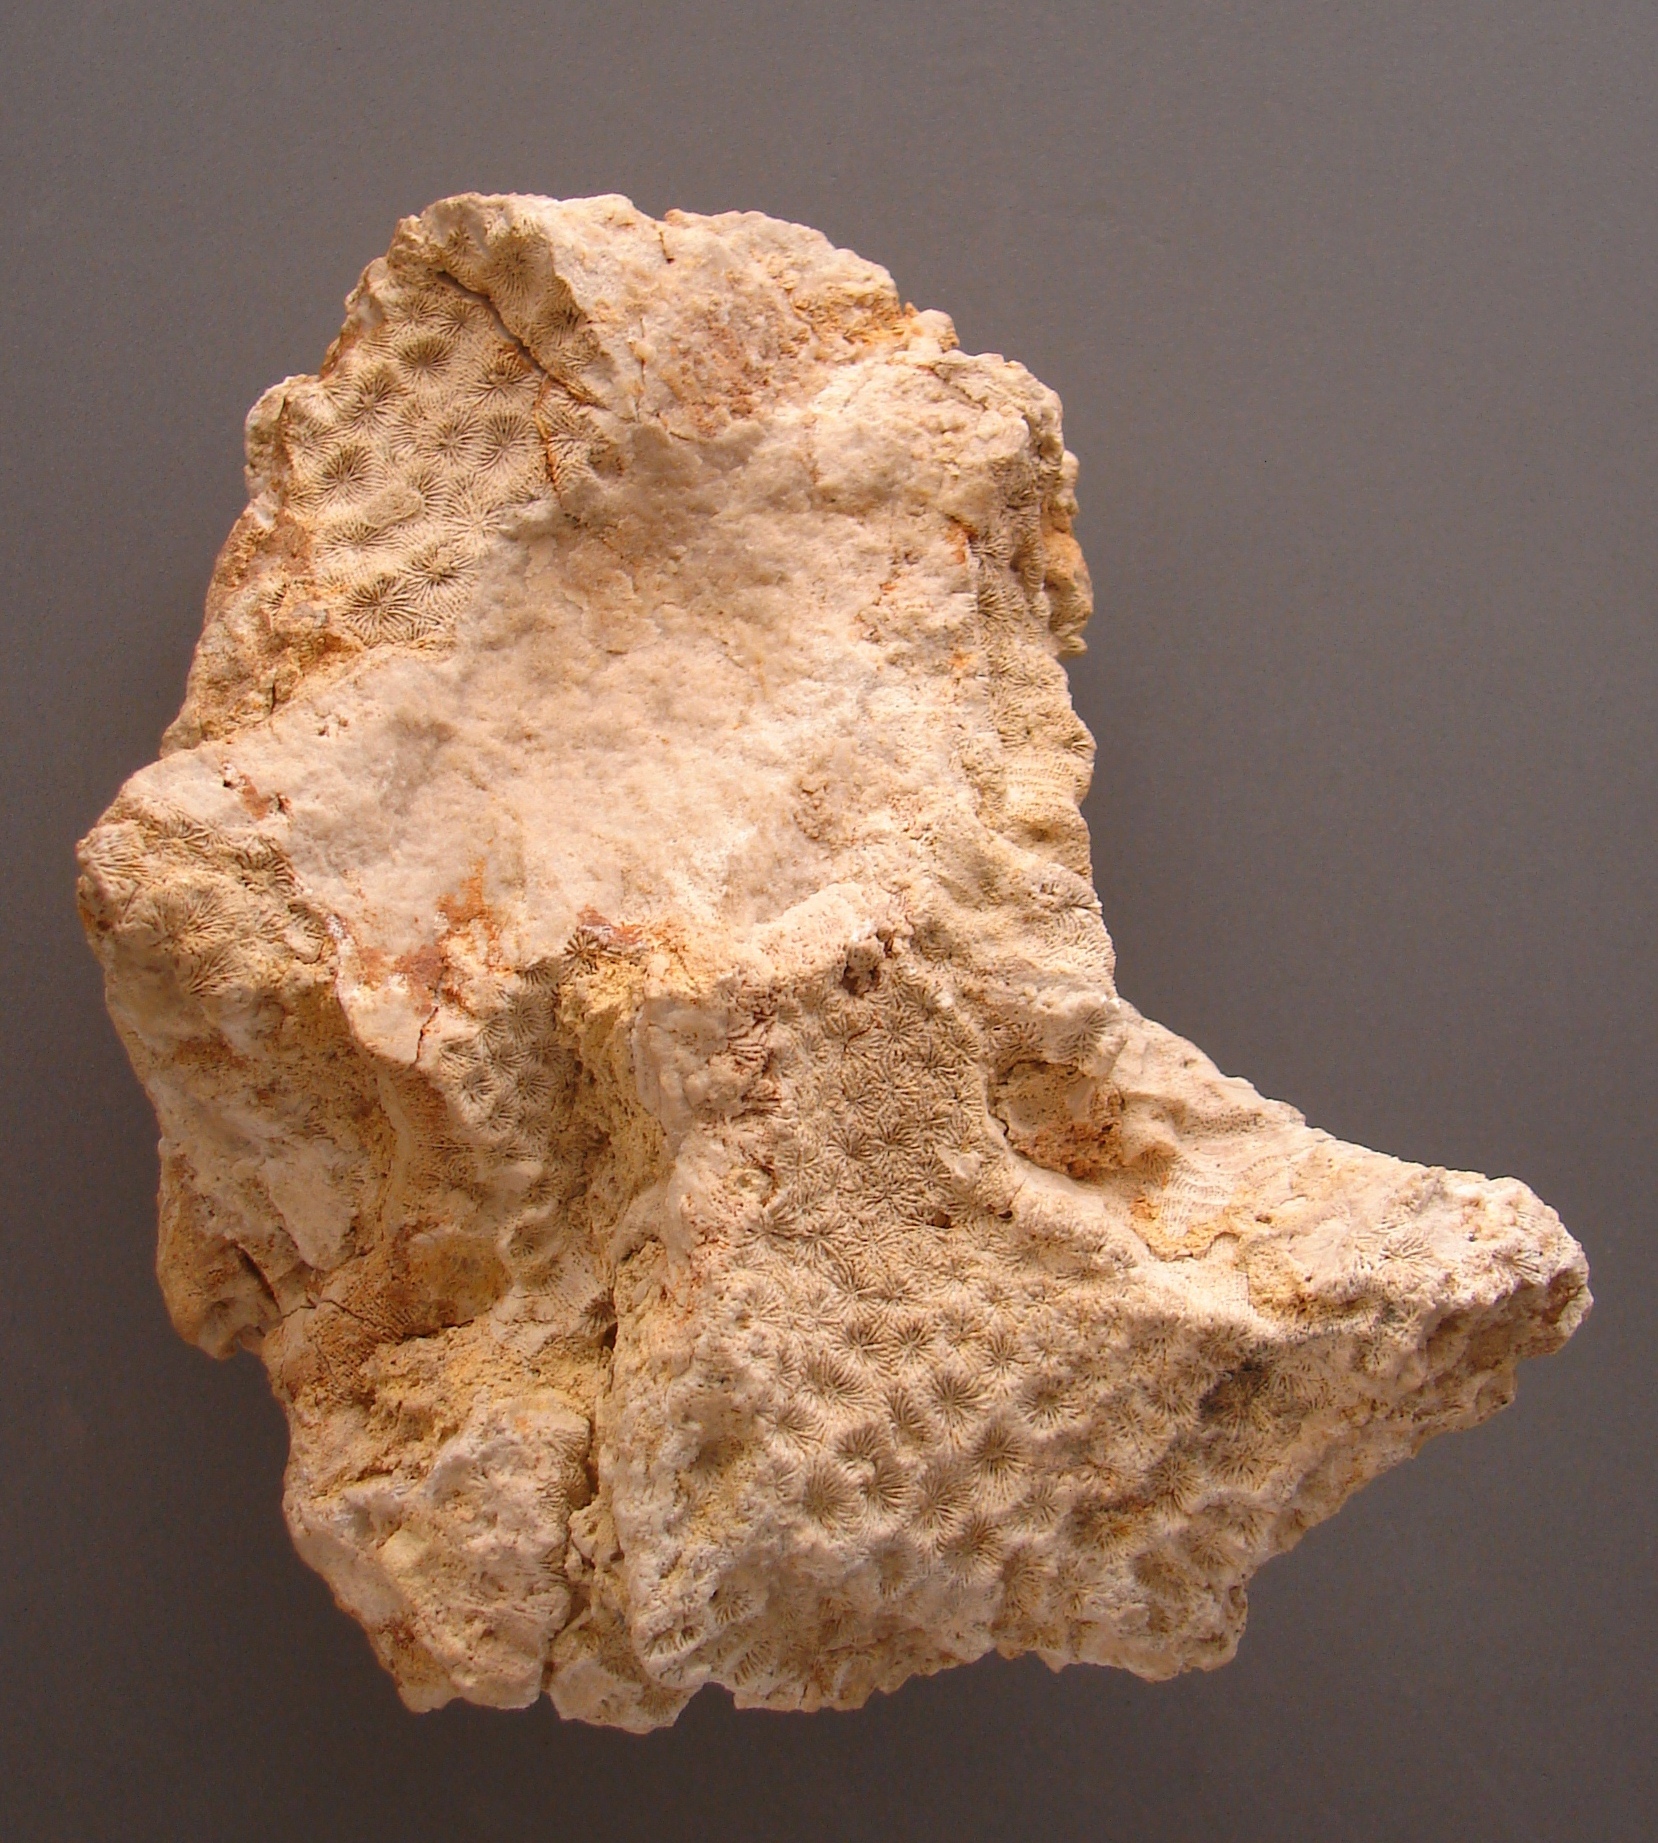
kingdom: Animalia
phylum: Cnidaria
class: Anthozoa
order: Scleractinia
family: Thecosmiliidae
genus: Isastrea
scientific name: Isastrea bernardiana
